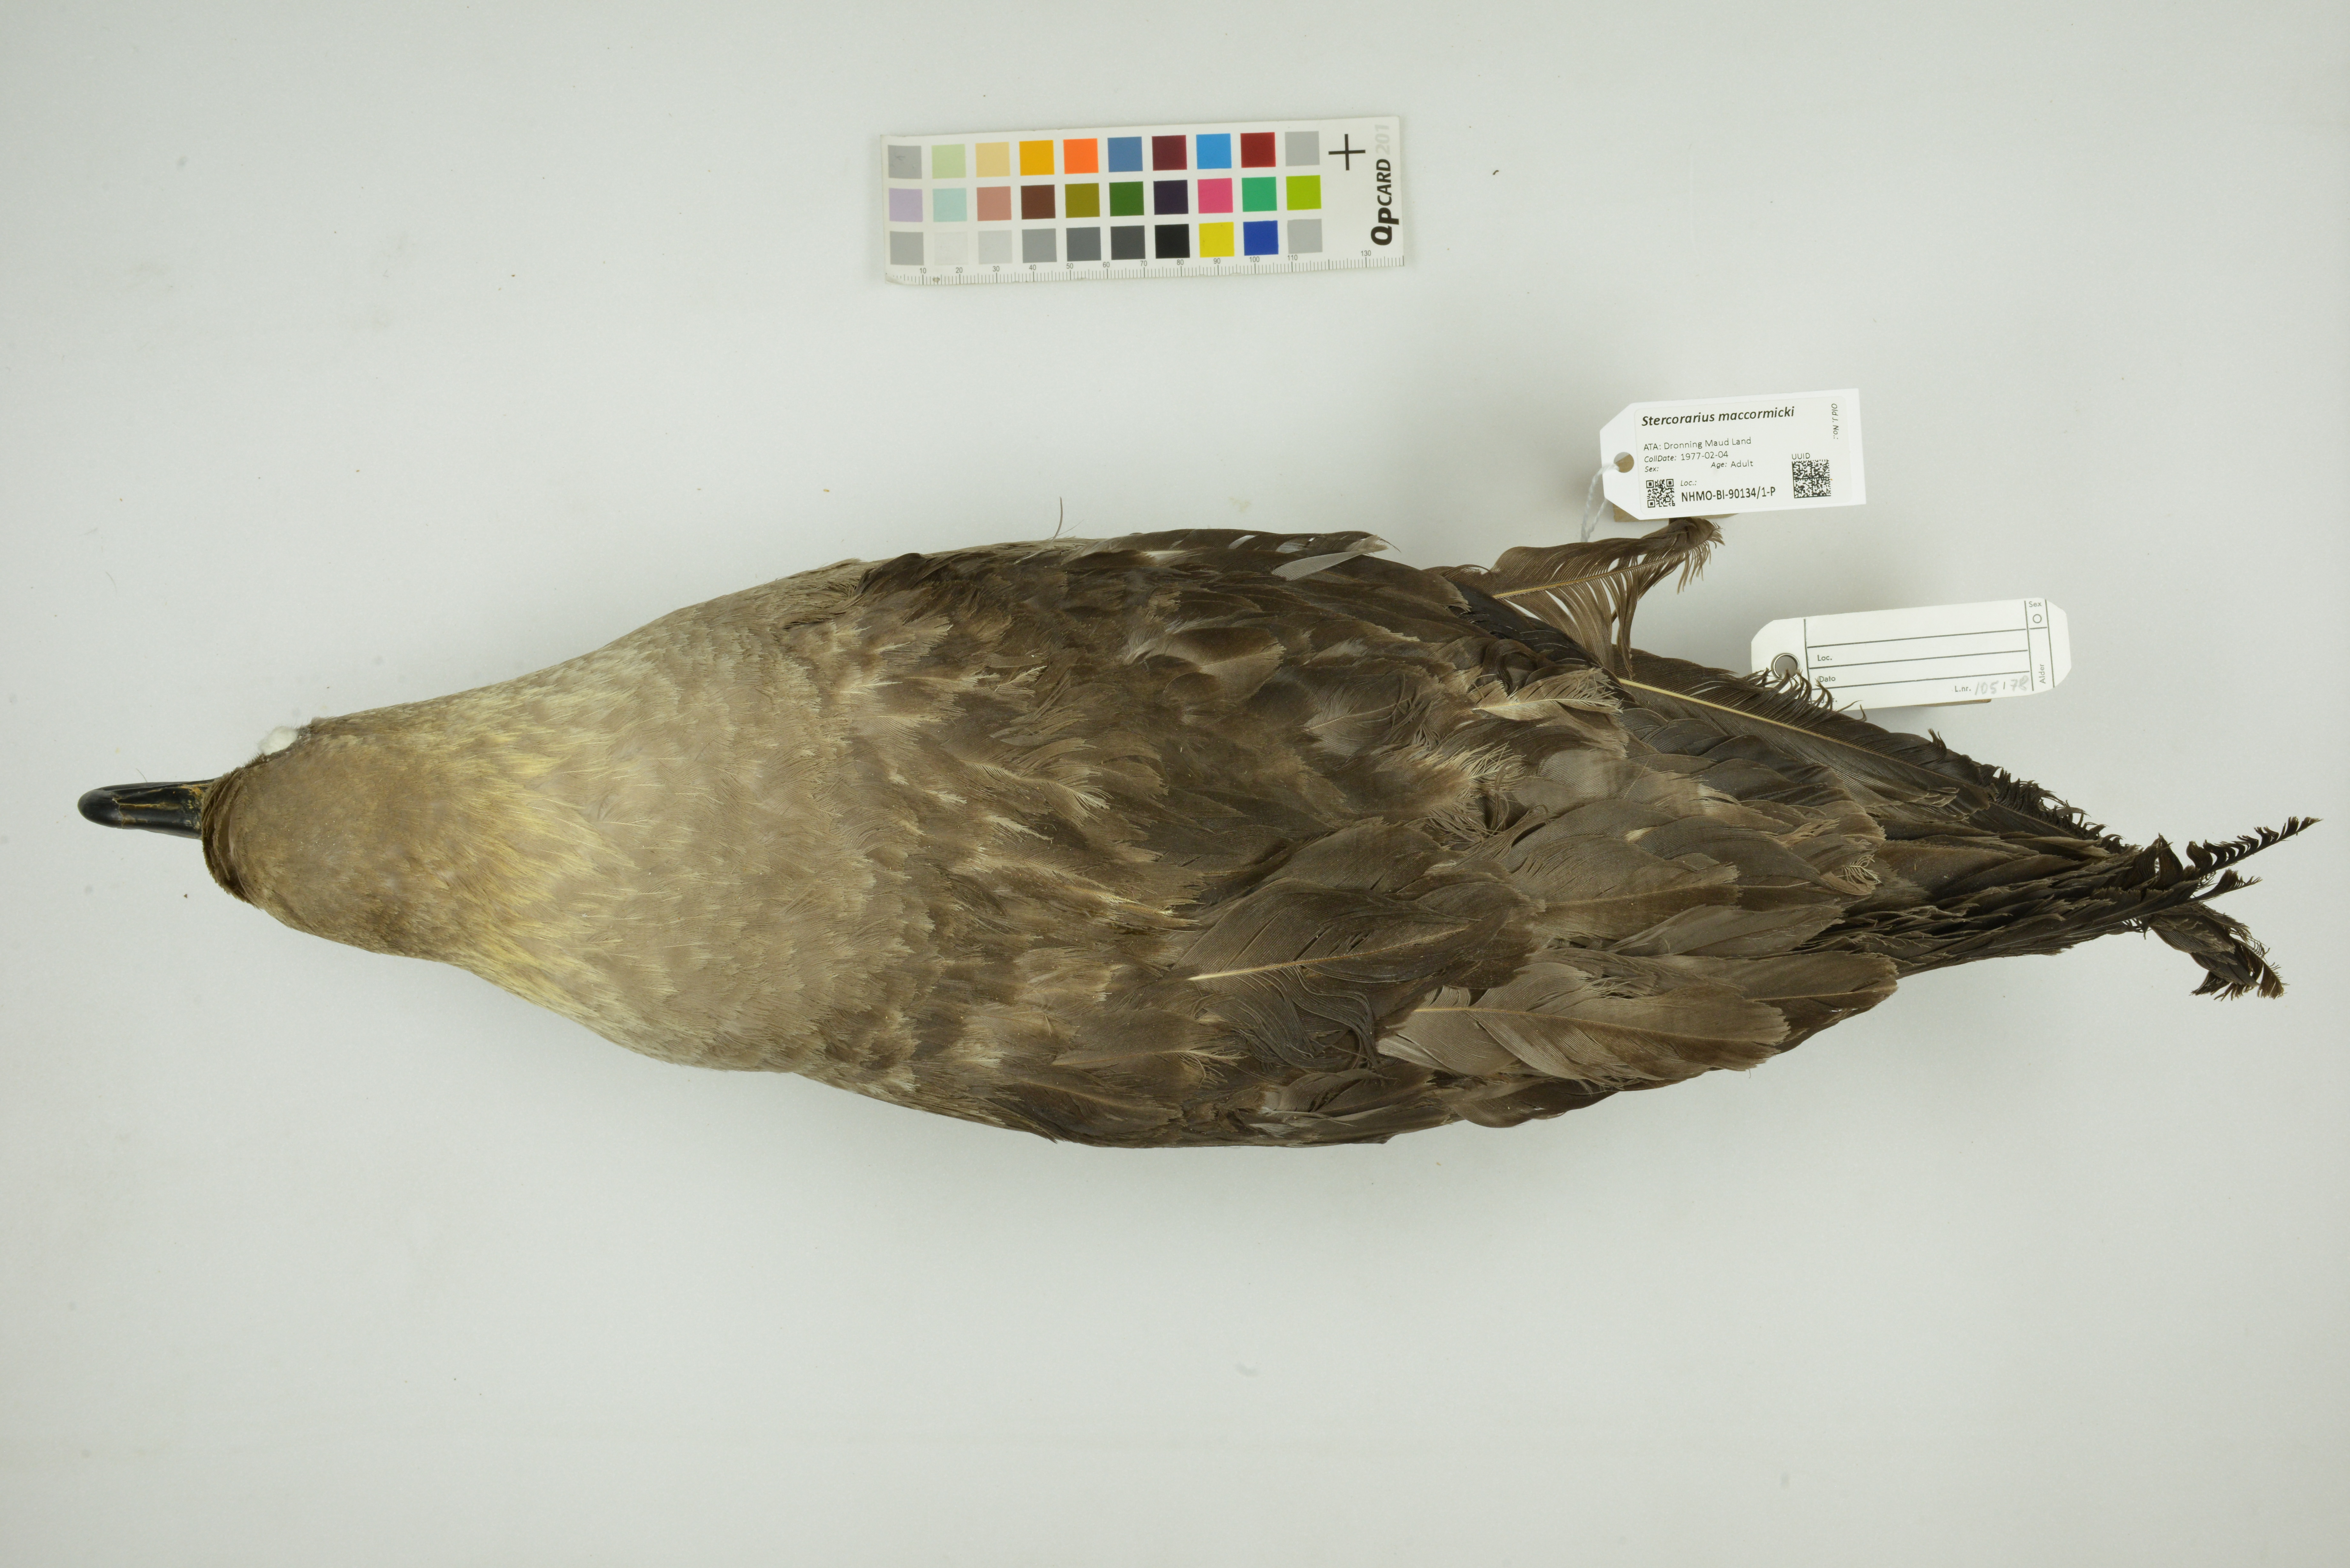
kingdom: Animalia
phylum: Chordata
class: Aves
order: Charadriiformes
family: Stercorariidae
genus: Stercorarius
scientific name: Stercorarius maccormicki
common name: South polar skua
